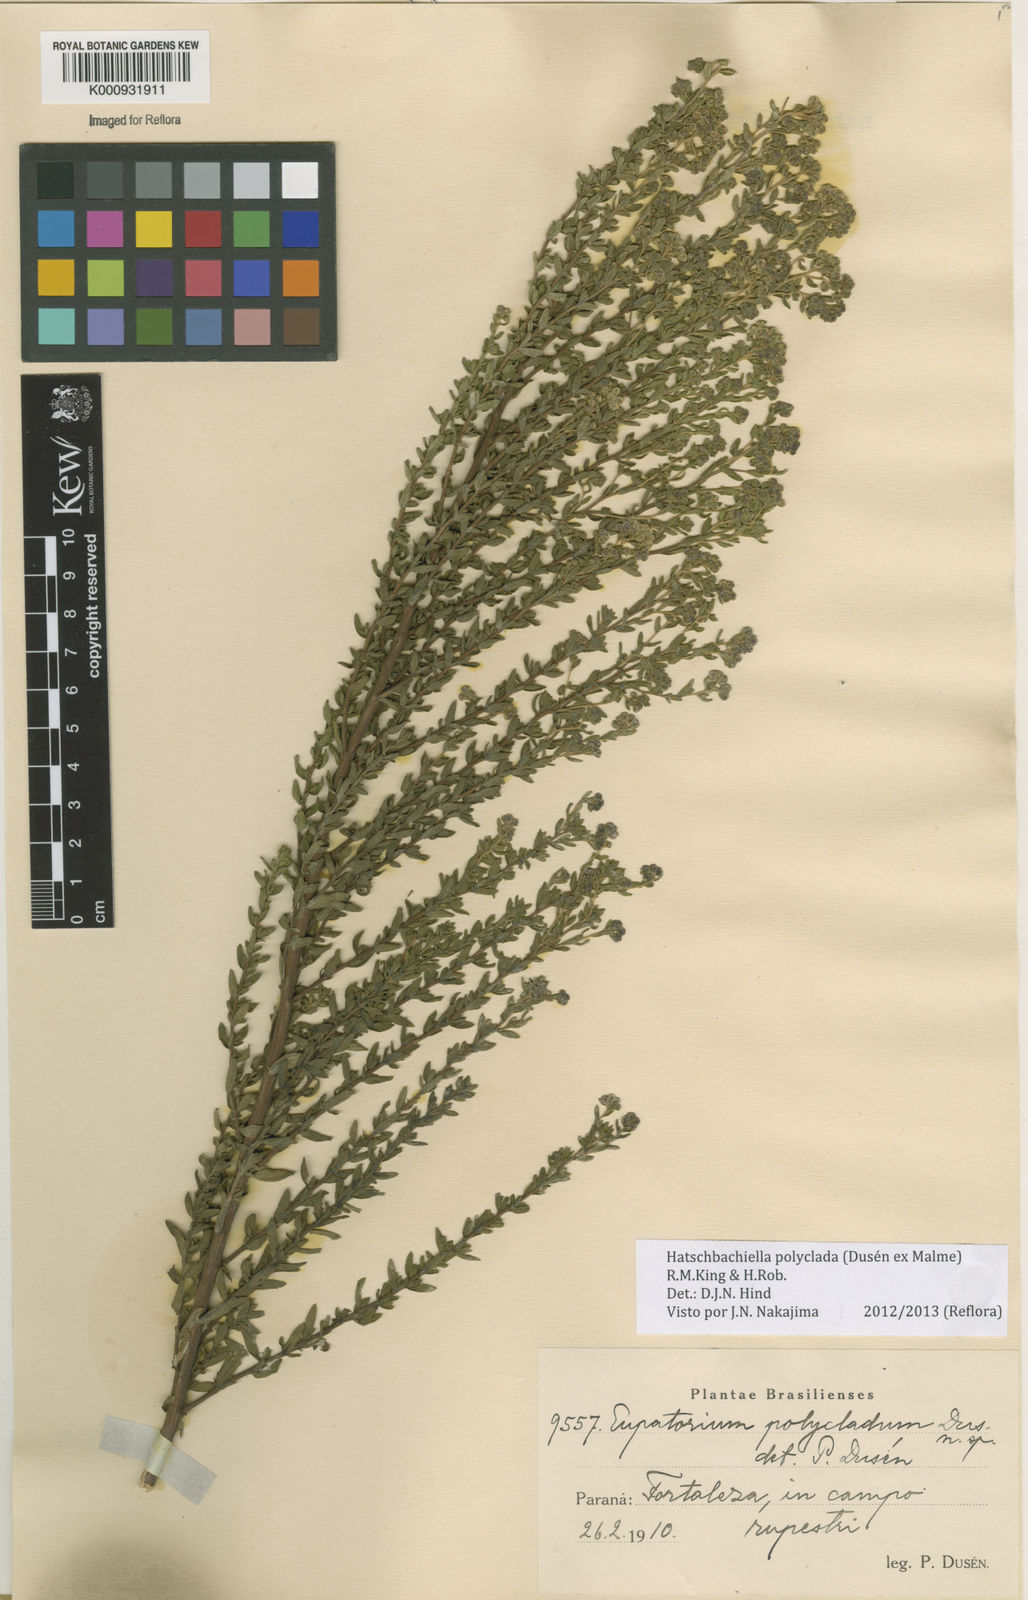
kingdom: Plantae
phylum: Tracheophyta
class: Magnoliopsida
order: Asterales
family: Asteraceae
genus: Stomatanthes
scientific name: Stomatanthes
